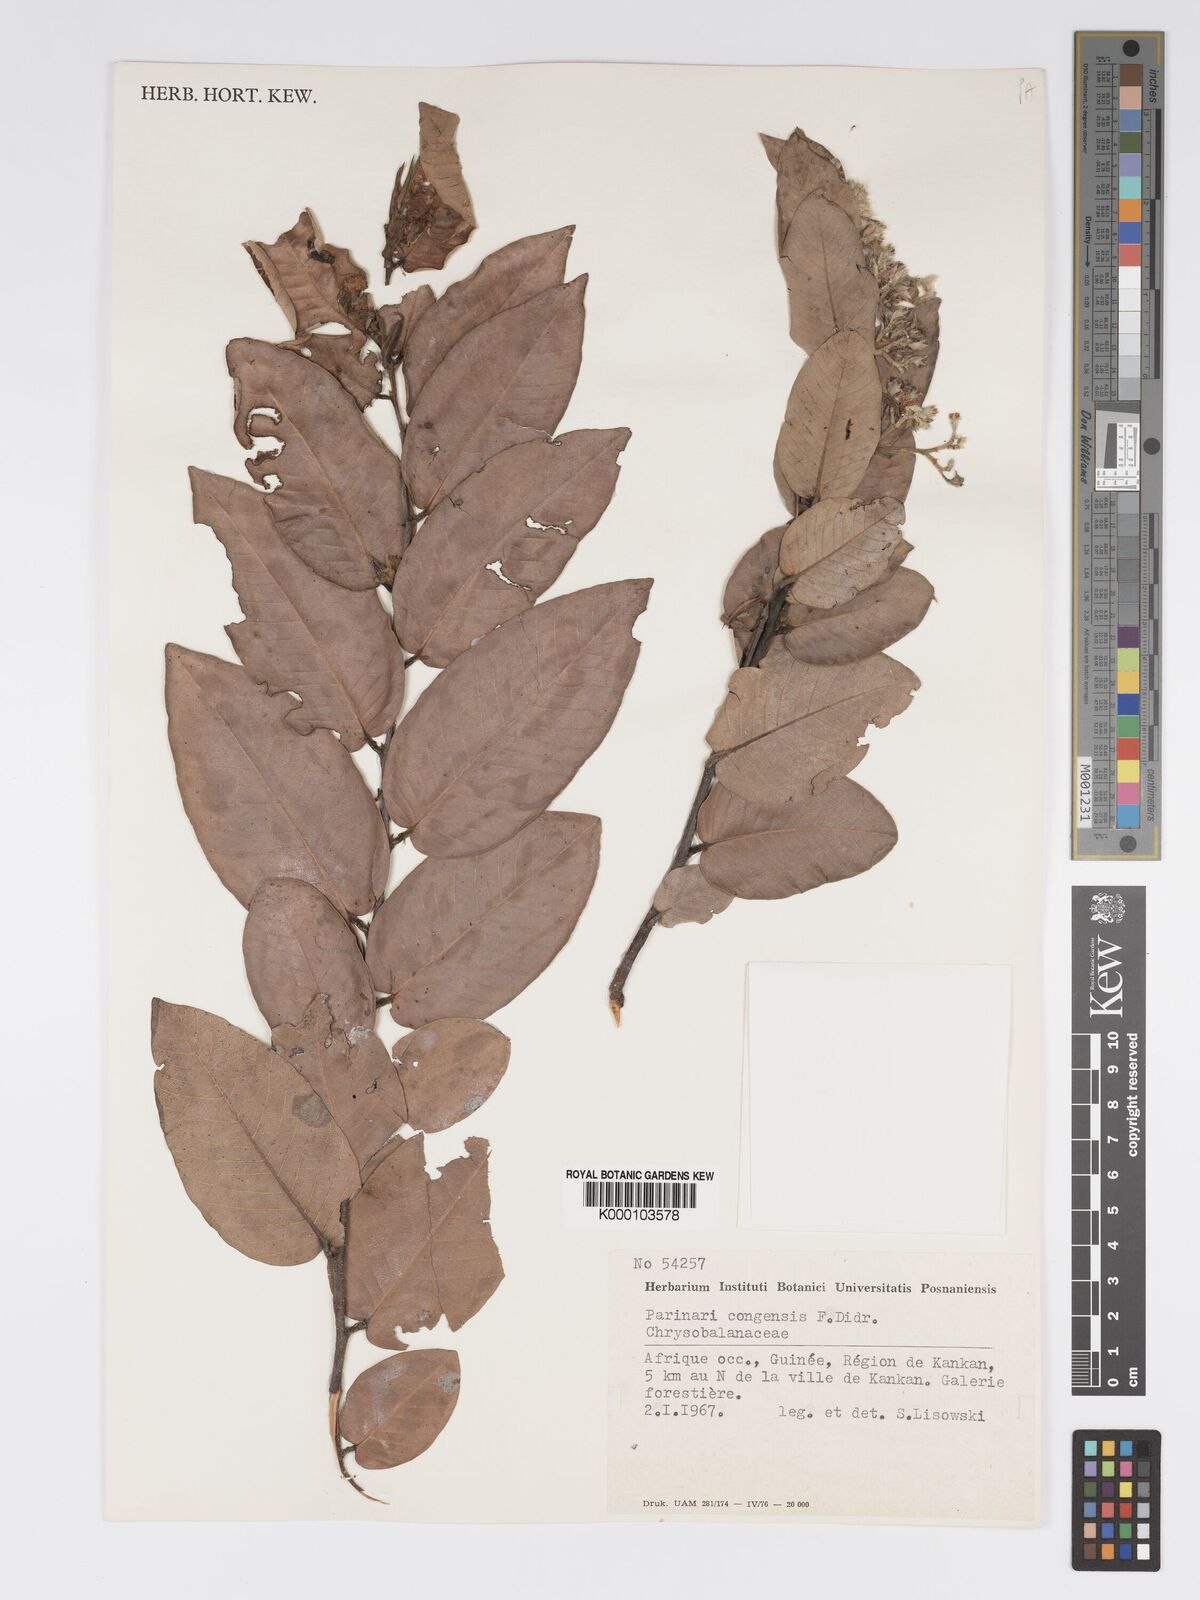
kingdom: Plantae
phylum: Tracheophyta
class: Magnoliopsida
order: Malpighiales
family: Chrysobalanaceae
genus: Parinari
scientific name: Parinari congensis
